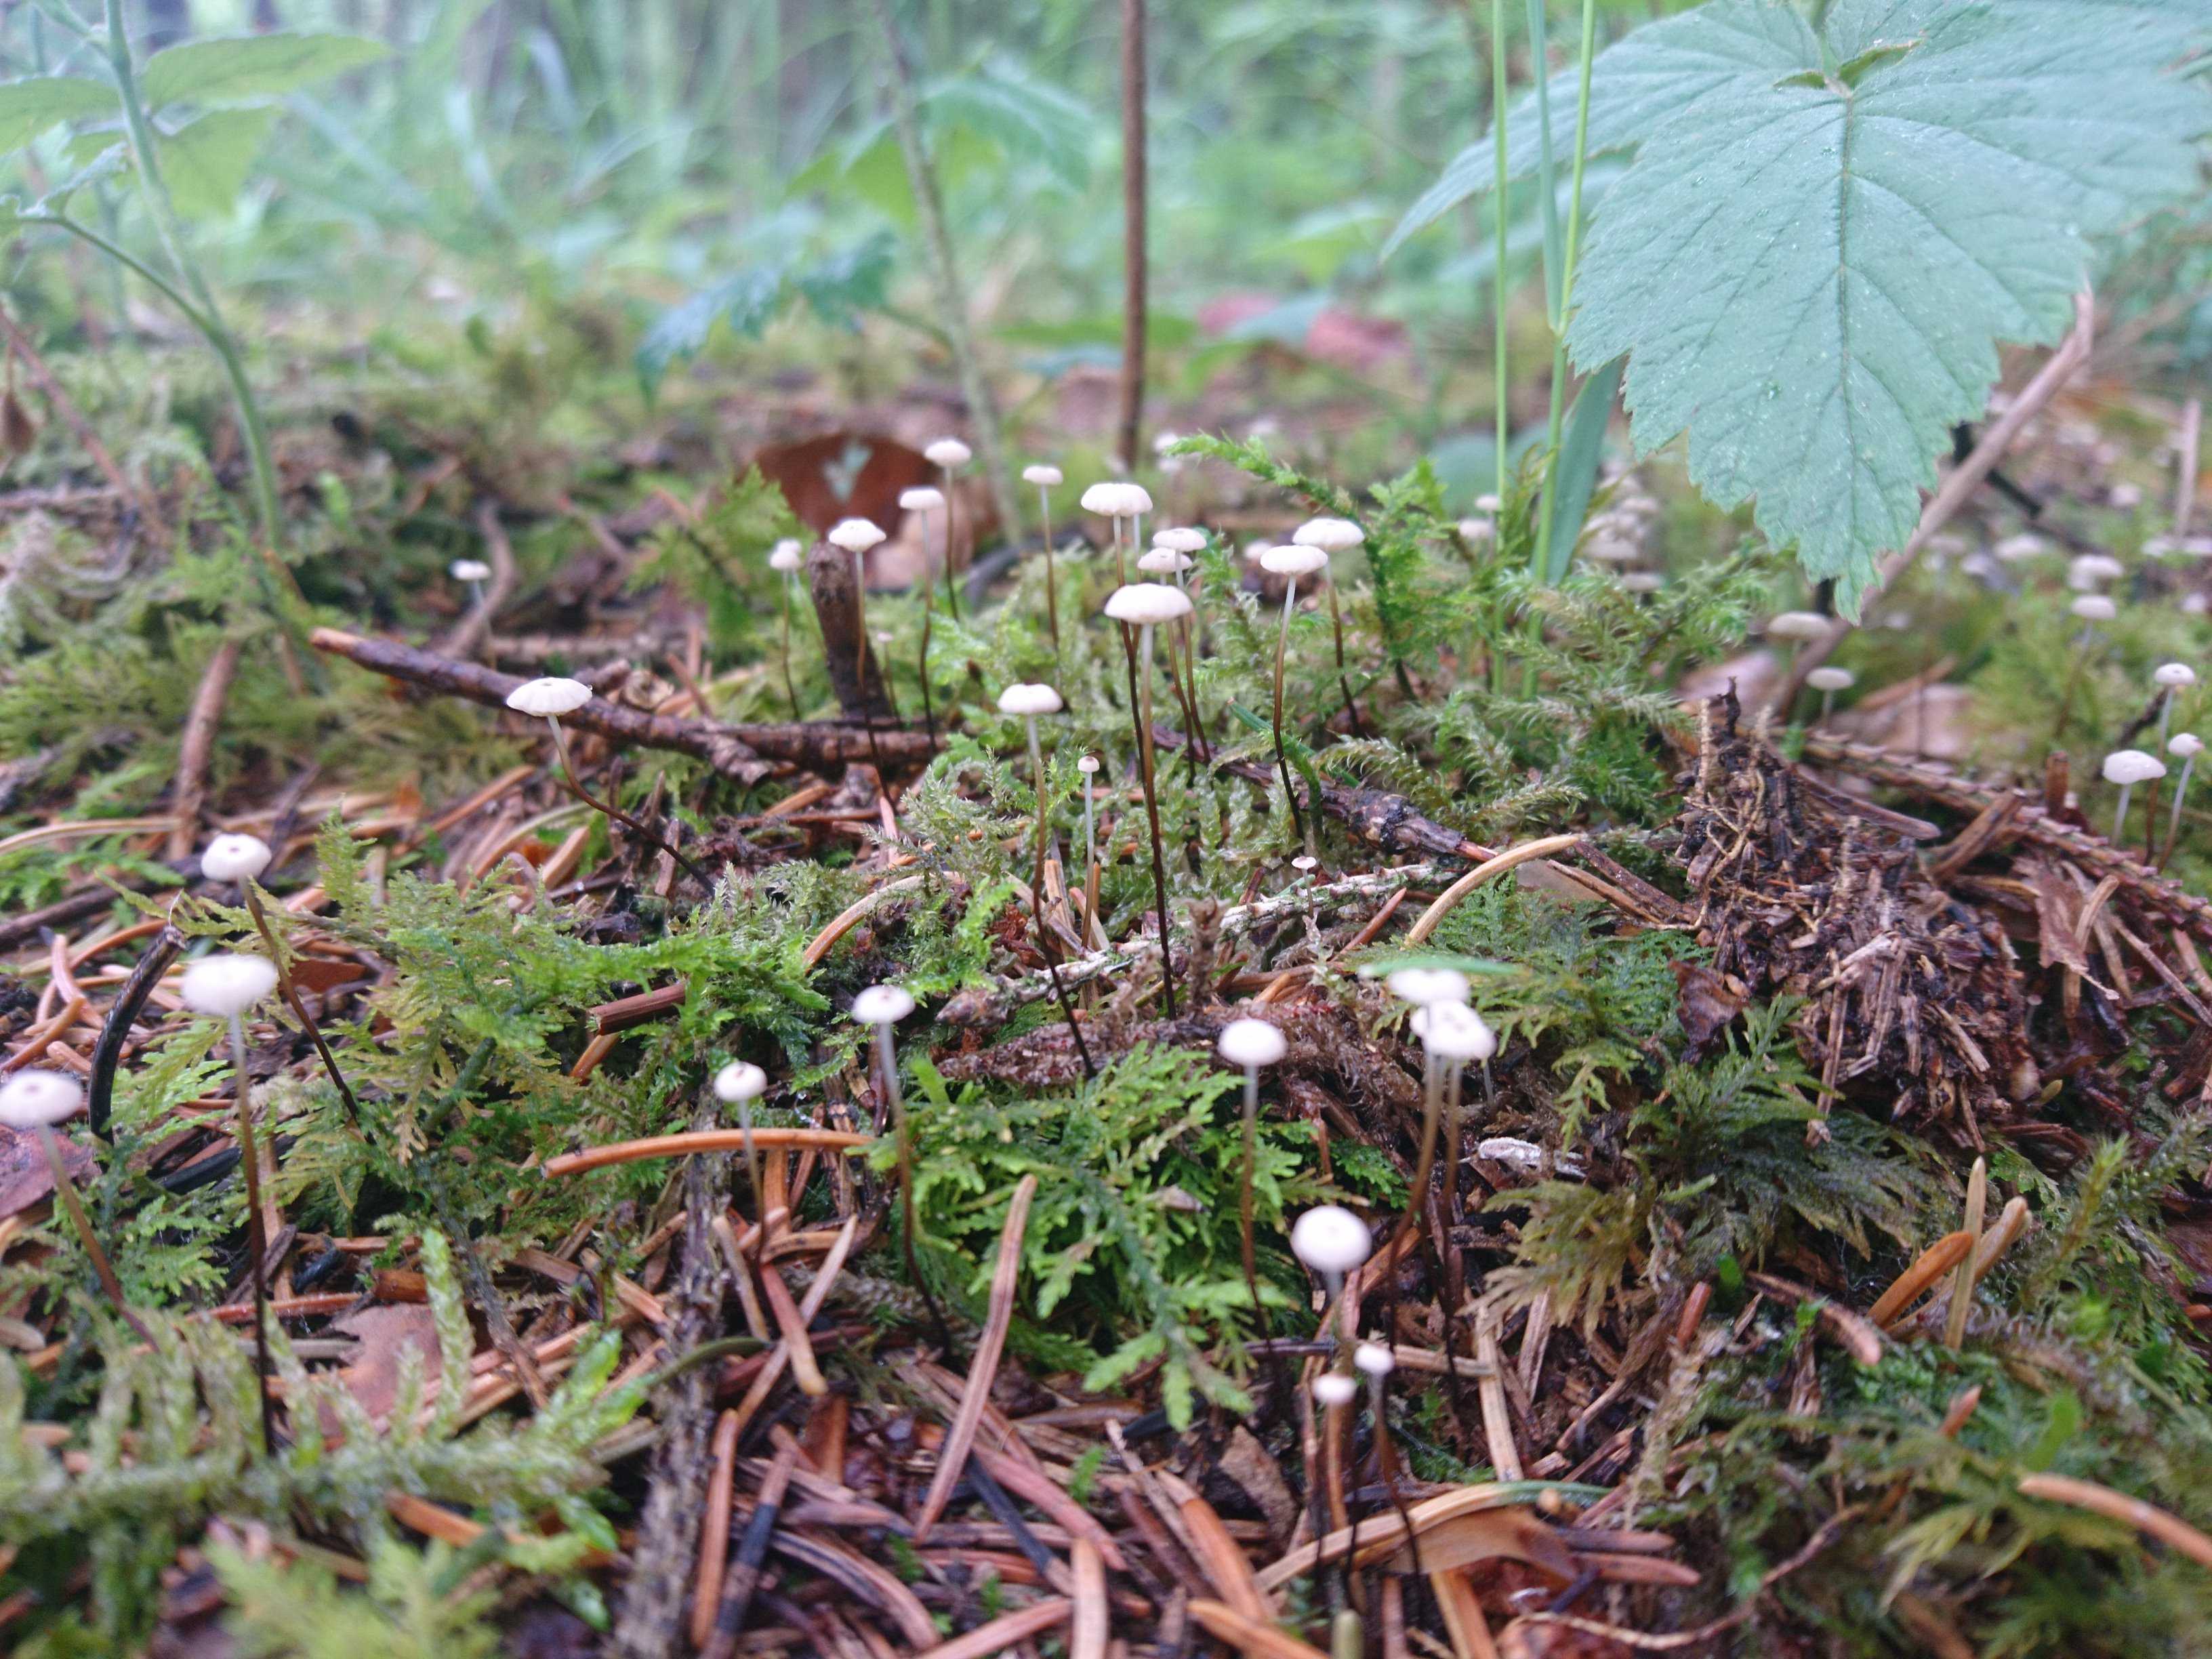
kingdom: Fungi
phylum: Basidiomycota
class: Agaricomycetes
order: Agaricales
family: Marasmiaceae
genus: Marasmius
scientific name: Marasmius wettsteinii
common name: Wettsteins bruskhat
